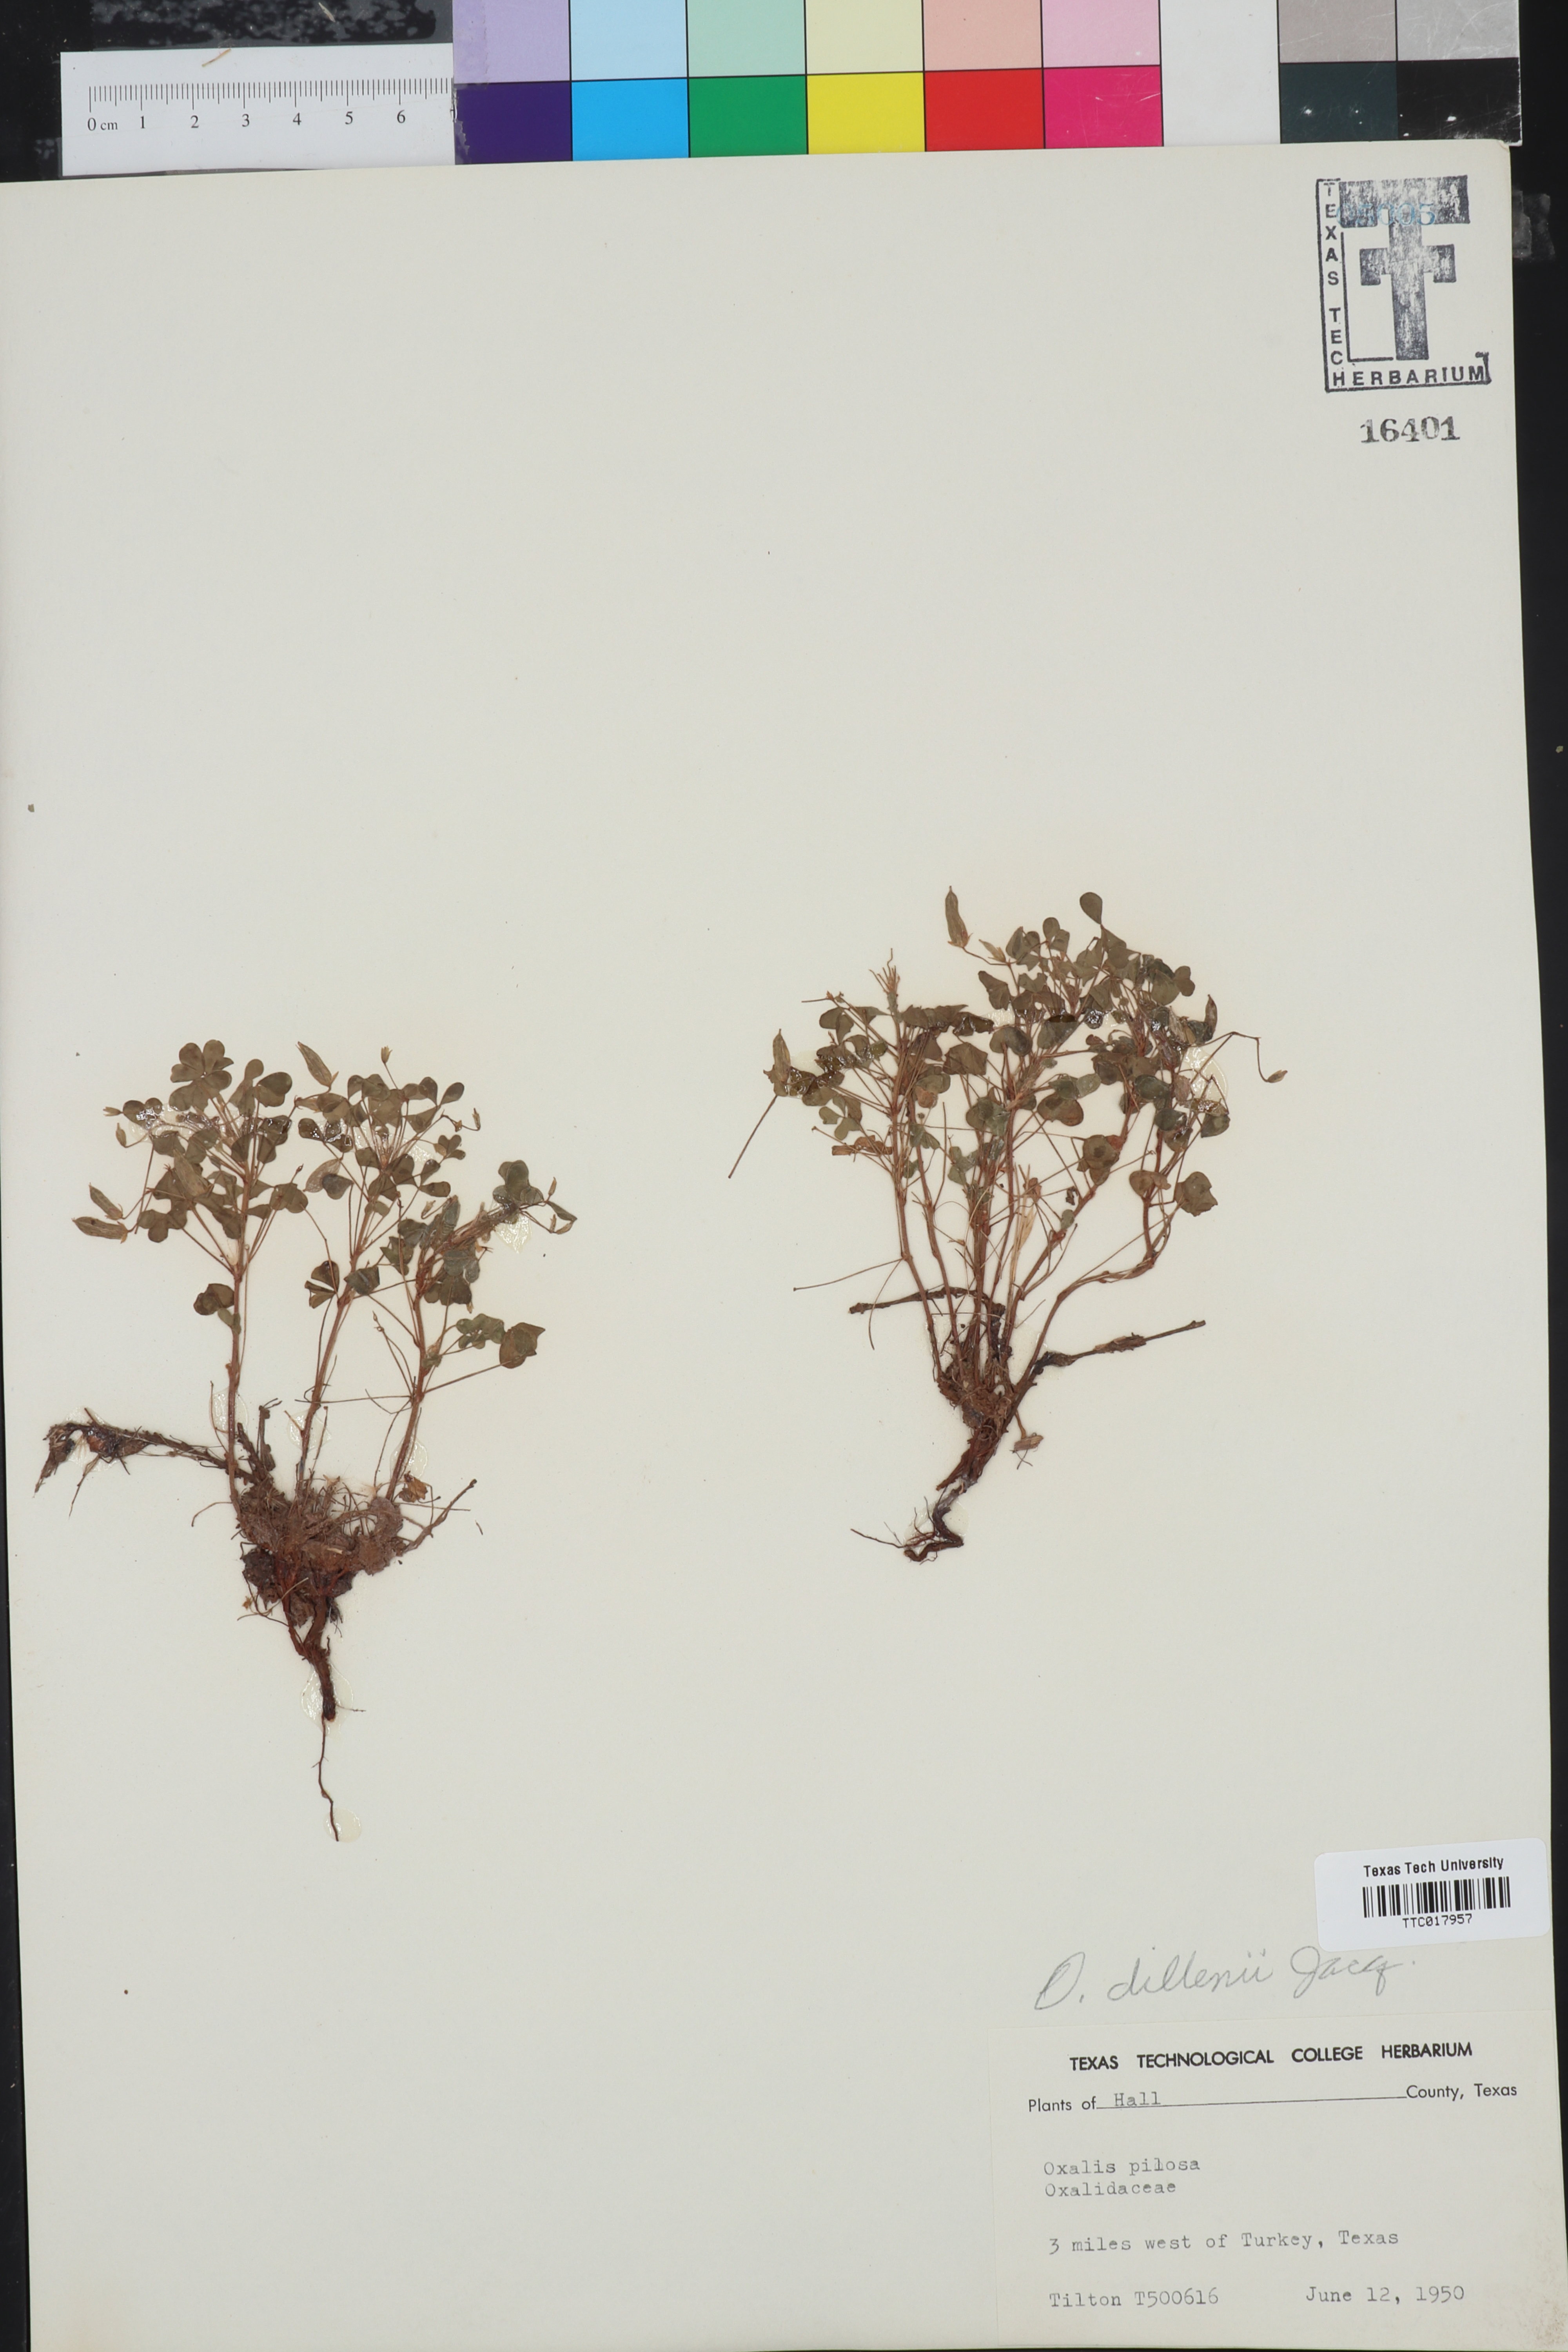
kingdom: Plantae
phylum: Tracheophyta
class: Magnoliopsida
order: Oxalidales
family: Oxalidaceae
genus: Oxalis
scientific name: Oxalis dillenii
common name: Sussex yellow-sorrel
